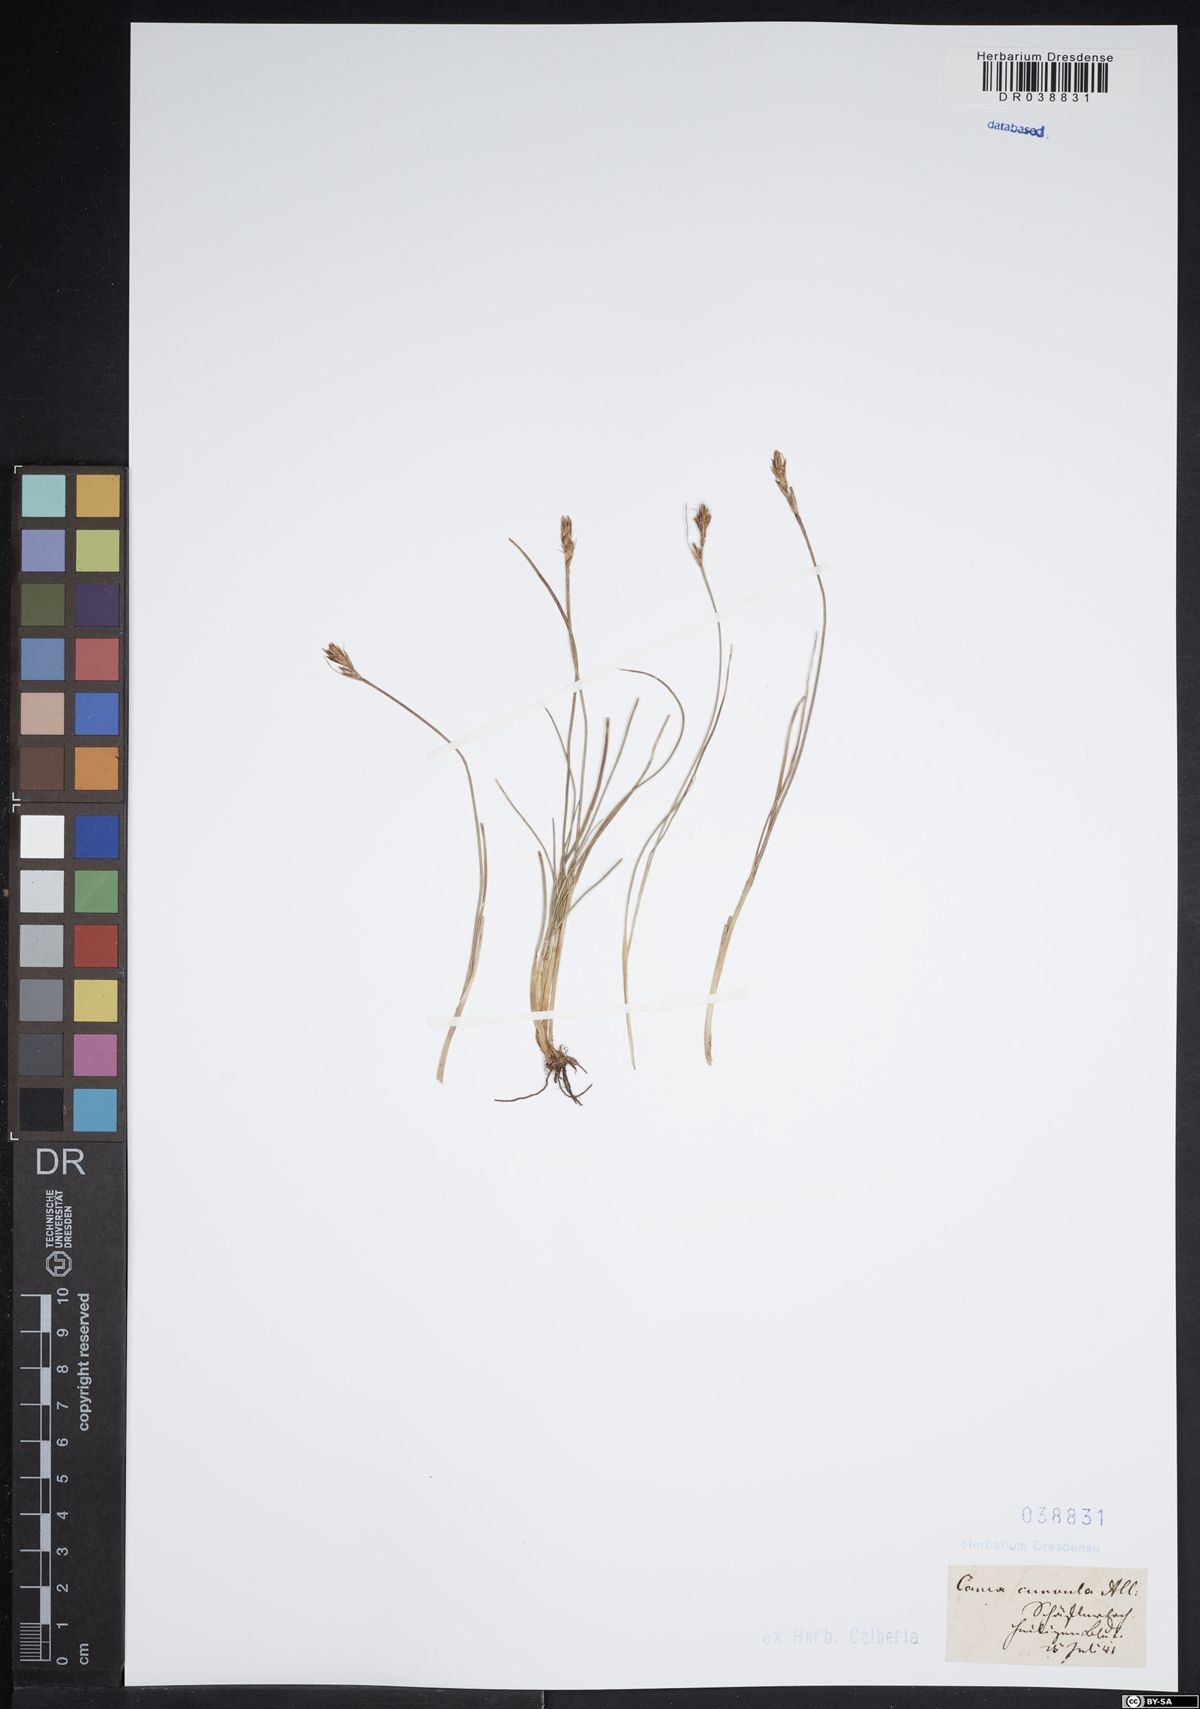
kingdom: Plantae
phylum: Tracheophyta
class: Liliopsida
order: Poales
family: Cyperaceae
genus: Carex
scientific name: Carex curvula
